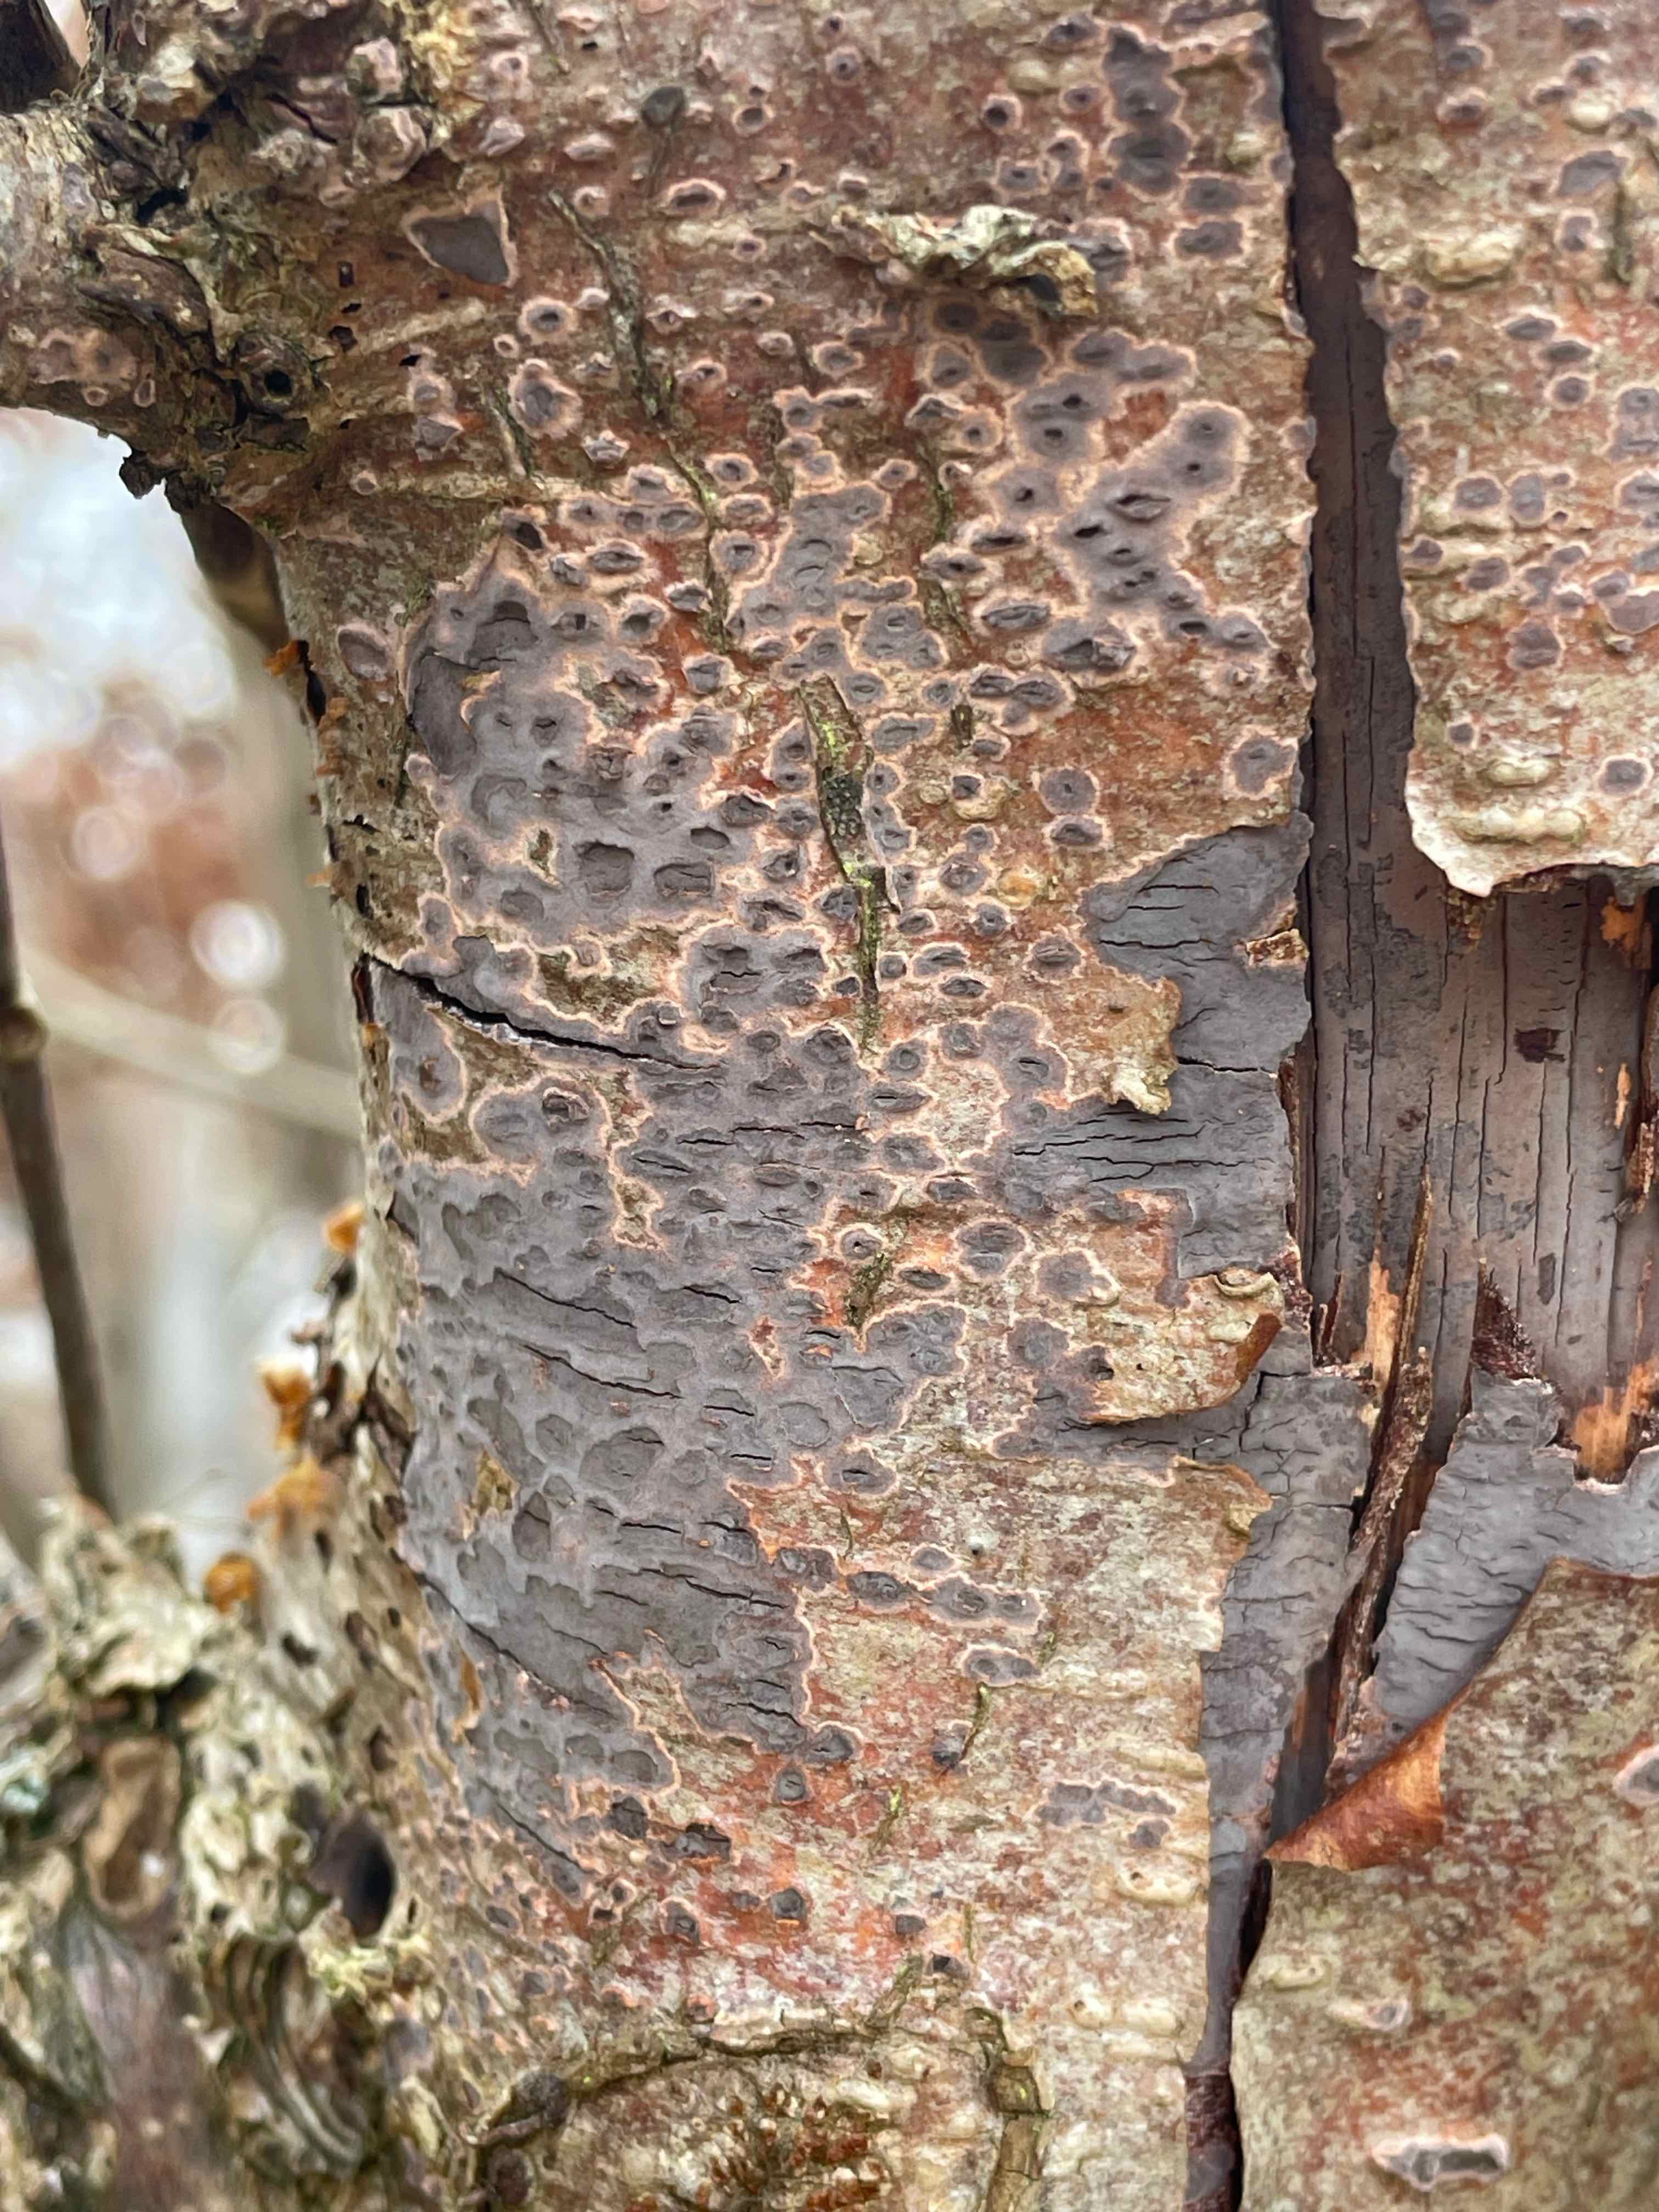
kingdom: Fungi
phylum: Basidiomycota
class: Agaricomycetes
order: Russulales
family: Peniophoraceae
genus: Peniophora
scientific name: Peniophora
